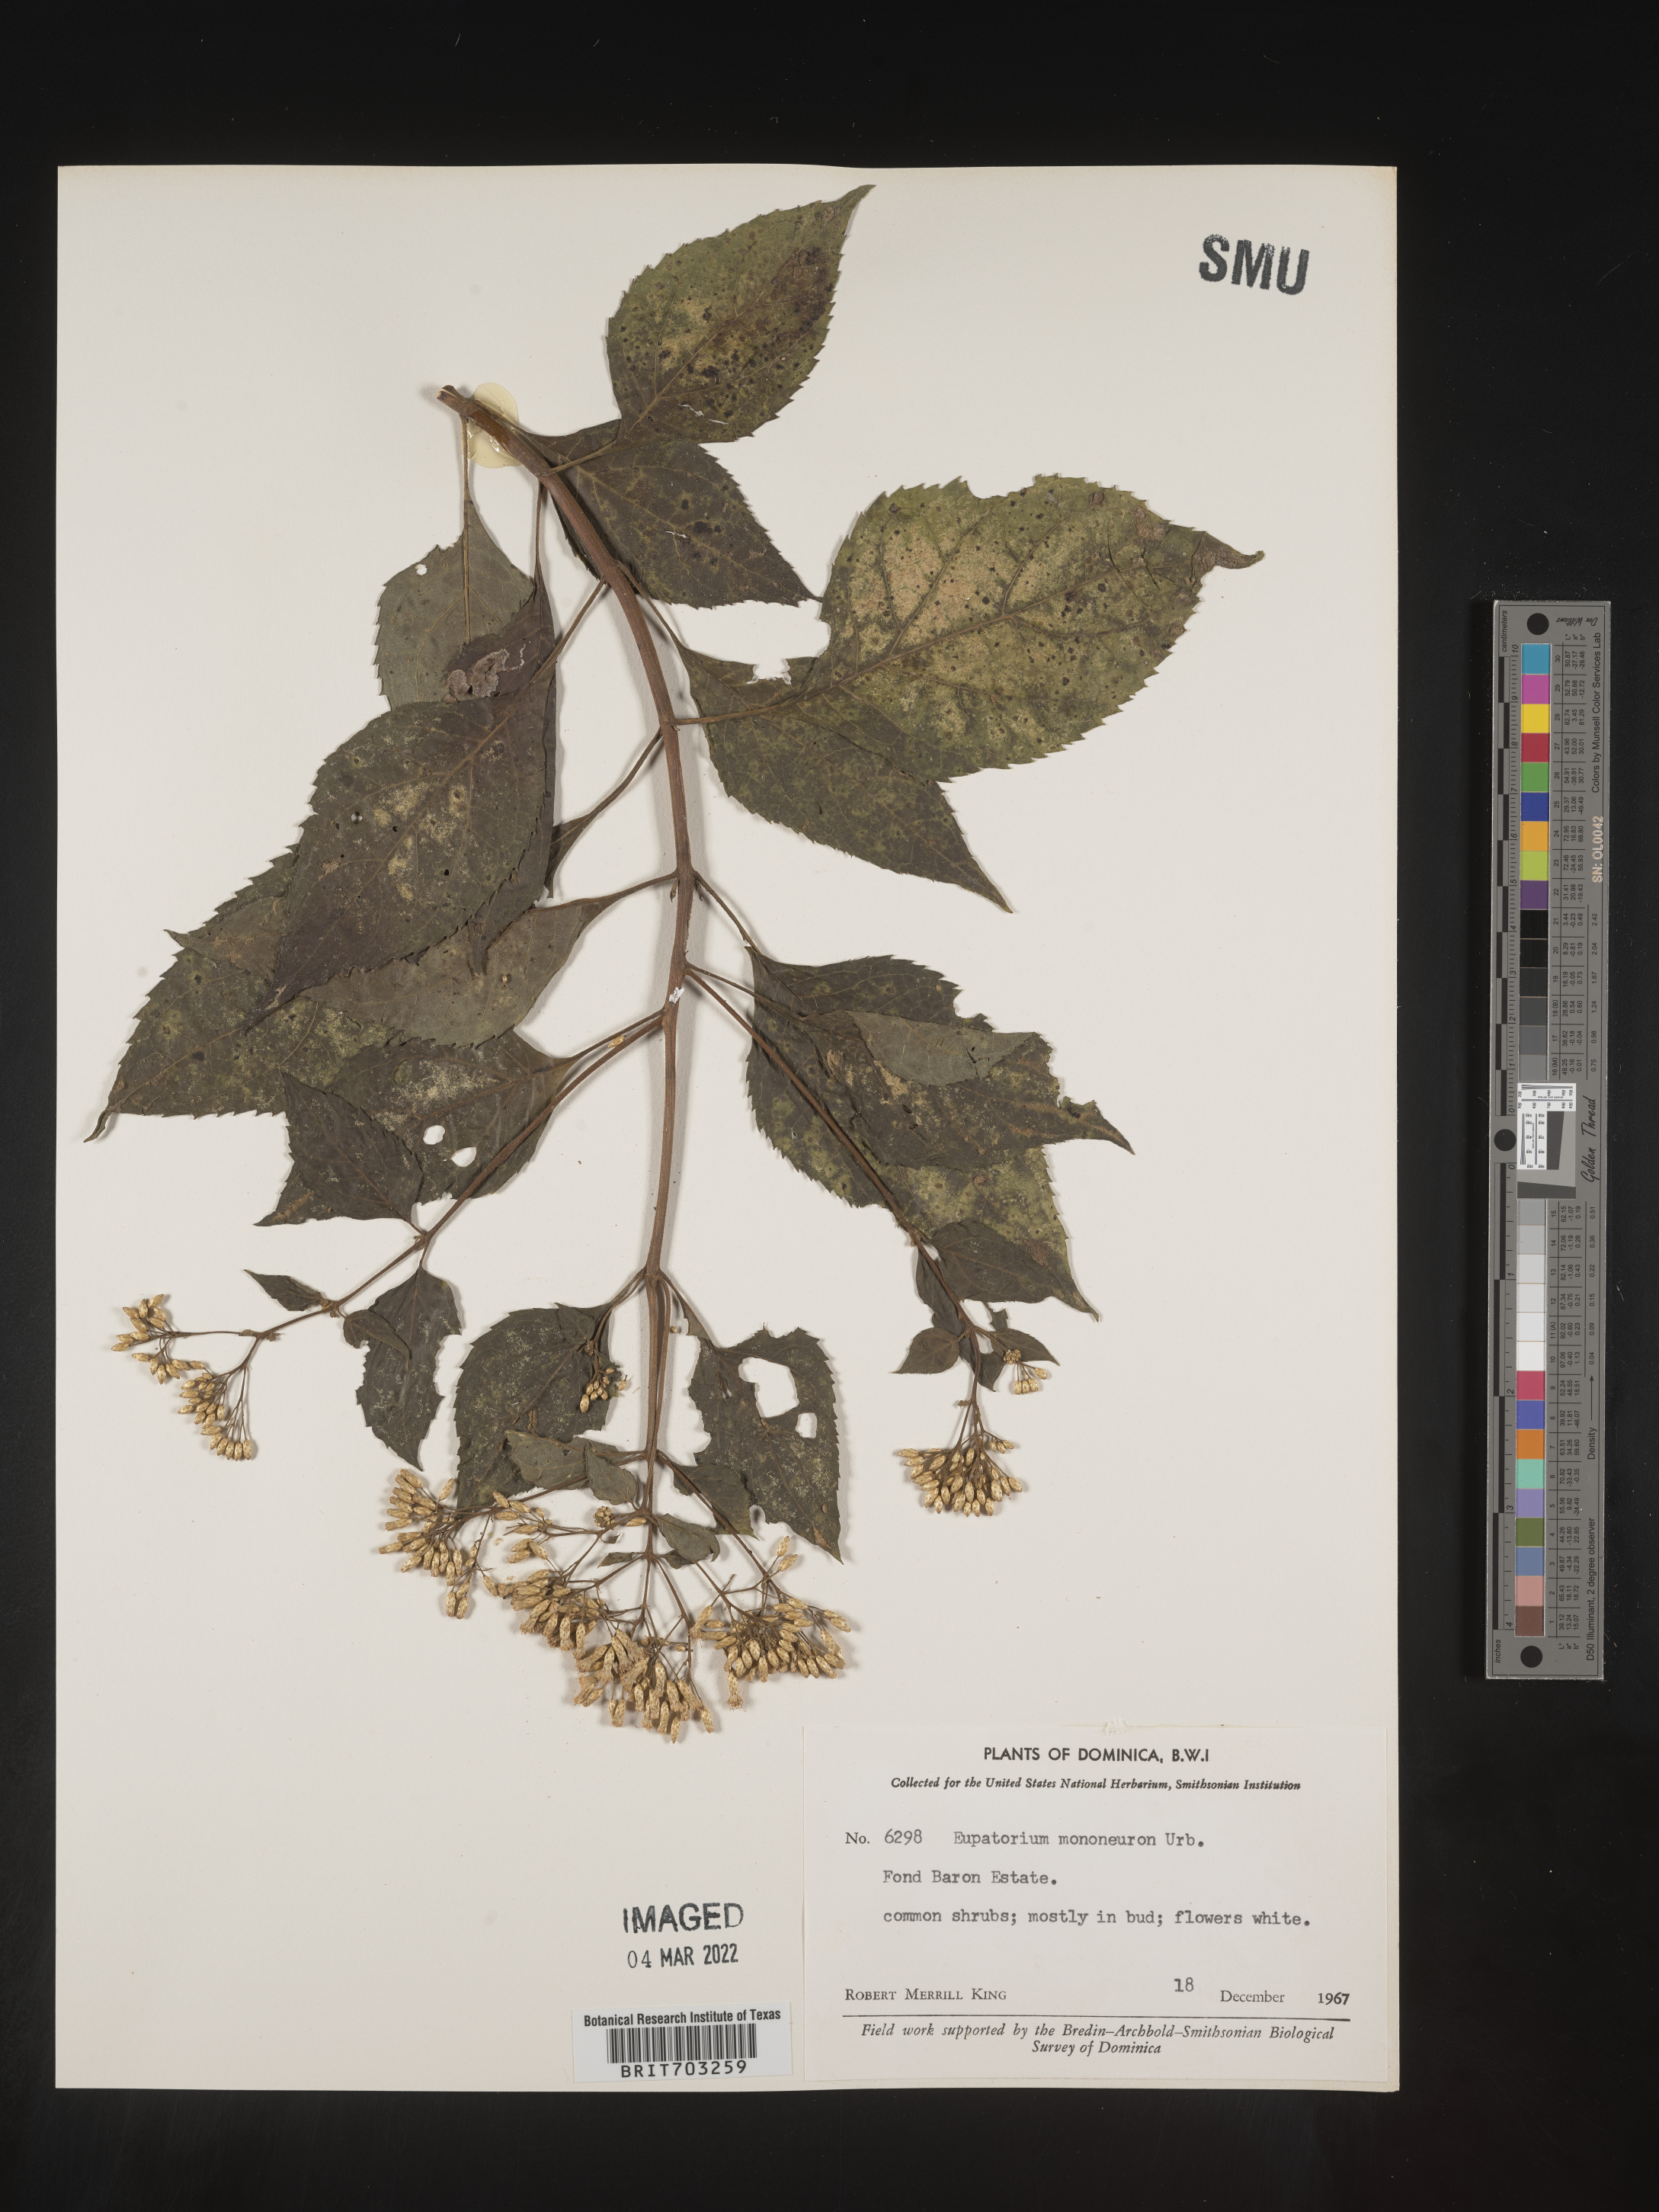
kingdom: Plantae
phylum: Tracheophyta
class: Magnoliopsida
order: Asterales
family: Asteraceae
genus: Eupatorium
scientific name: Eupatorium
